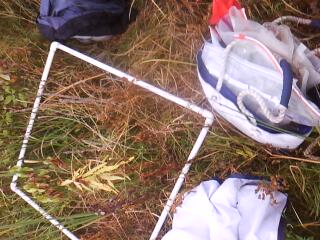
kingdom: Plantae
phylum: Tracheophyta
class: Liliopsida
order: Poales
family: Typhaceae
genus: Typha
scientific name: Typha latifolia
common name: Broadleaf cattail
